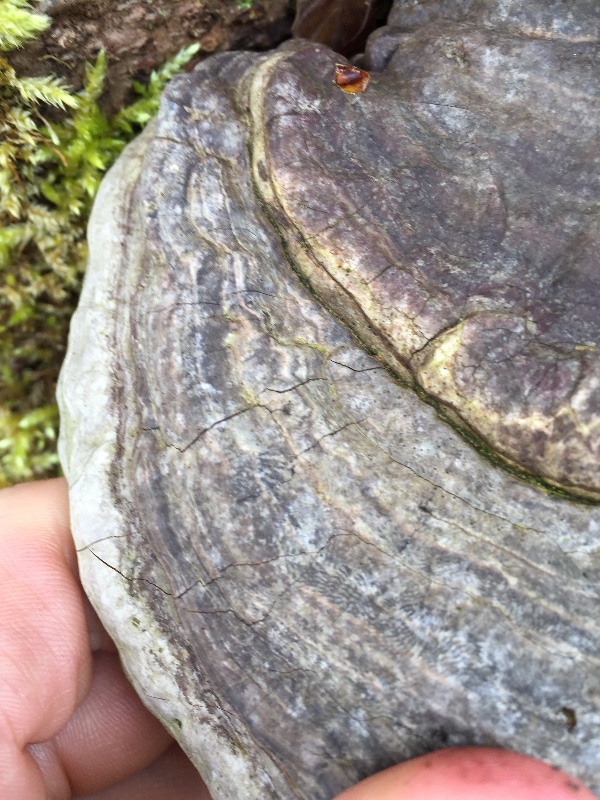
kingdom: Fungi
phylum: Basidiomycota
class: Agaricomycetes
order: Polyporales
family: Polyporaceae
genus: Ganoderma
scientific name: Ganoderma applanatum
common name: flad lakporesvamp
